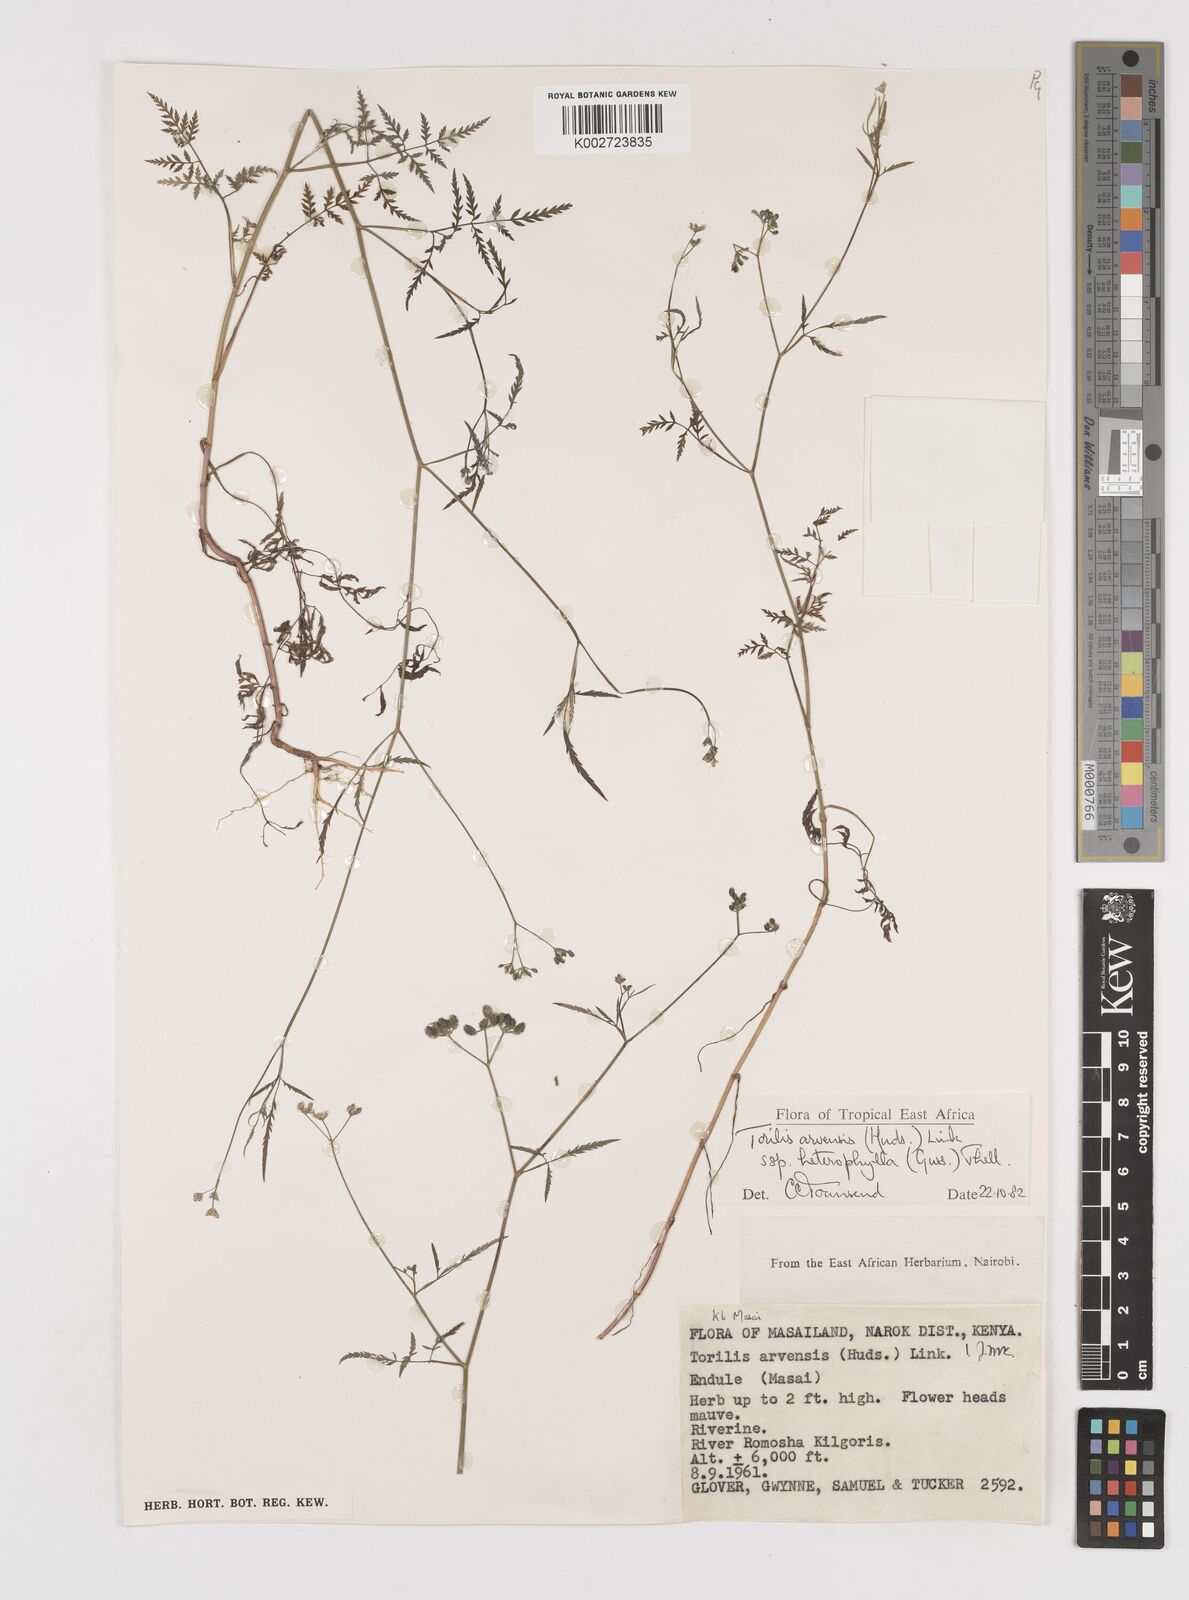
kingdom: Plantae
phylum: Tracheophyta
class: Magnoliopsida
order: Apiales
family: Apiaceae
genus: Torilis
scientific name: Torilis arvensis
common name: Spreading hedge-parsley
